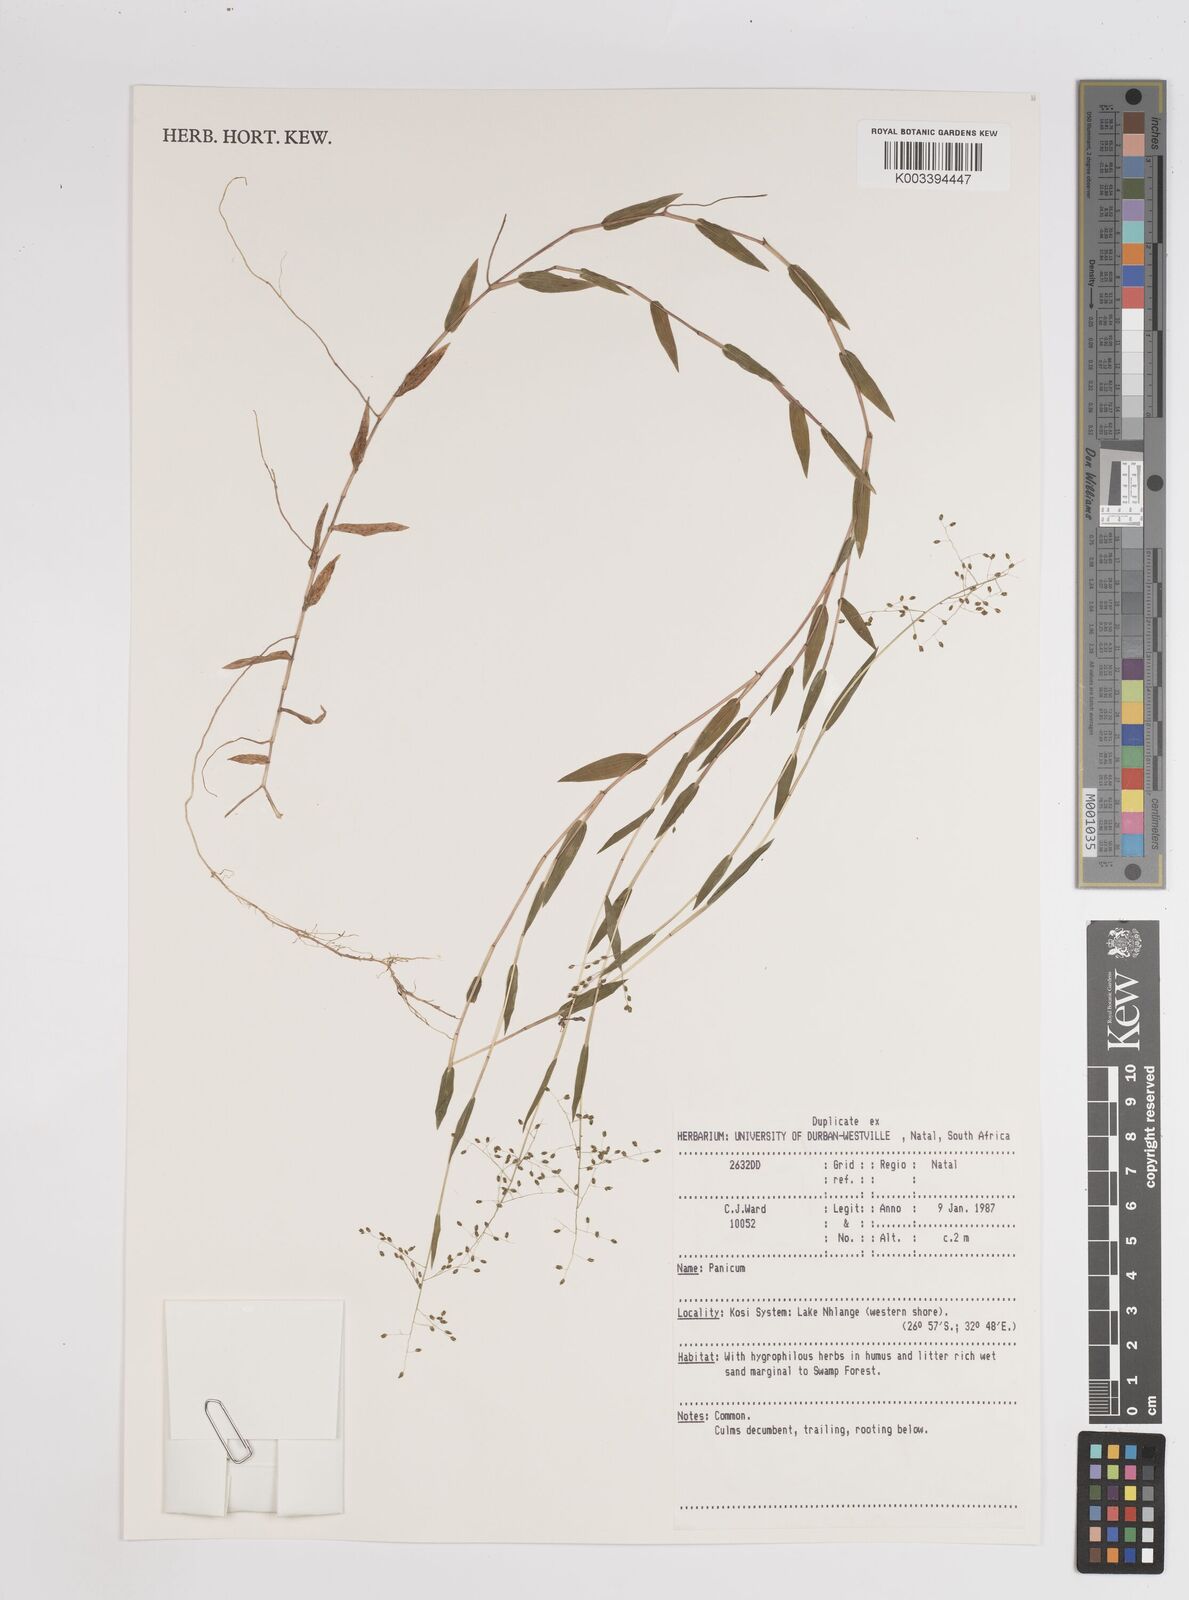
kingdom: Plantae
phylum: Tracheophyta
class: Liliopsida
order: Poales
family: Poaceae
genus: Adenochloa
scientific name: Adenochloa pectinella
